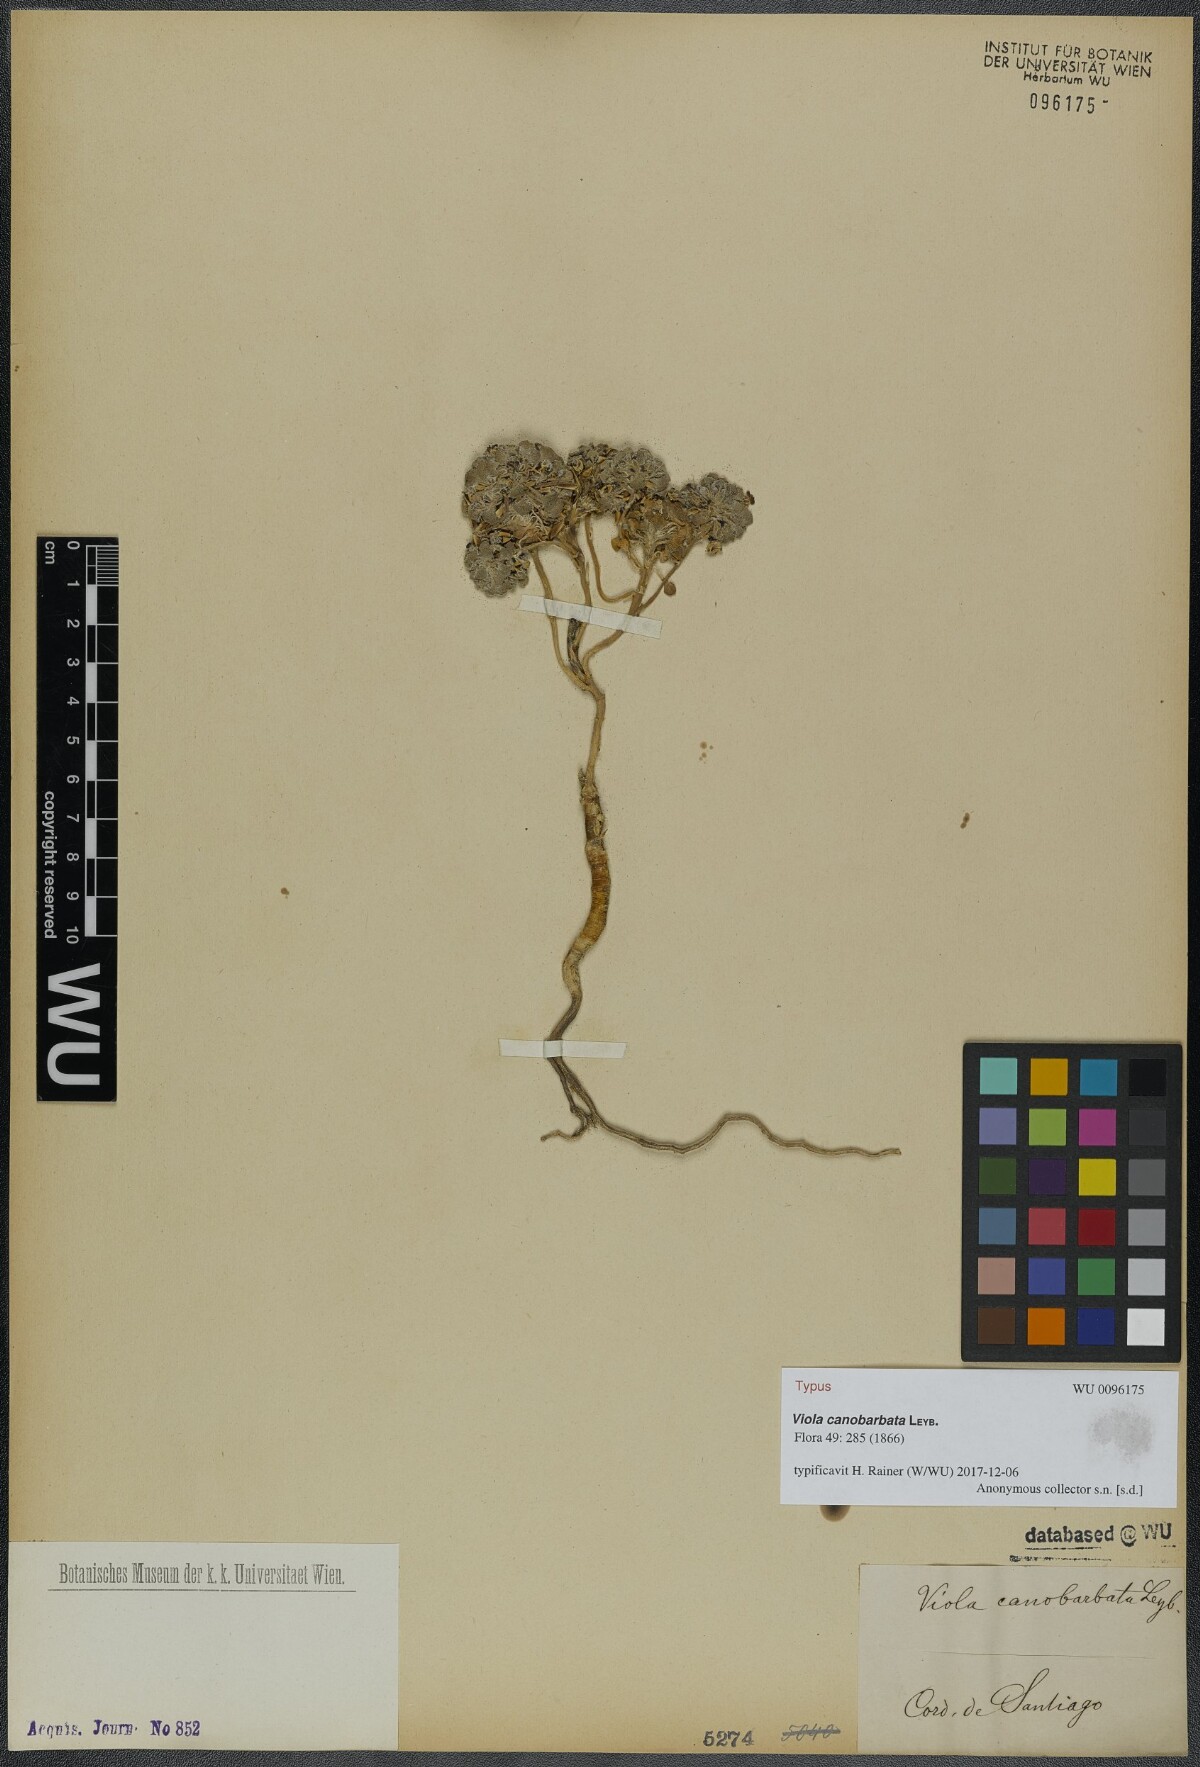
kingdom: Plantae
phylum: Tracheophyta
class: Magnoliopsida
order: Malpighiales
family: Violaceae
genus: Viola
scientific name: Viola montagnei
